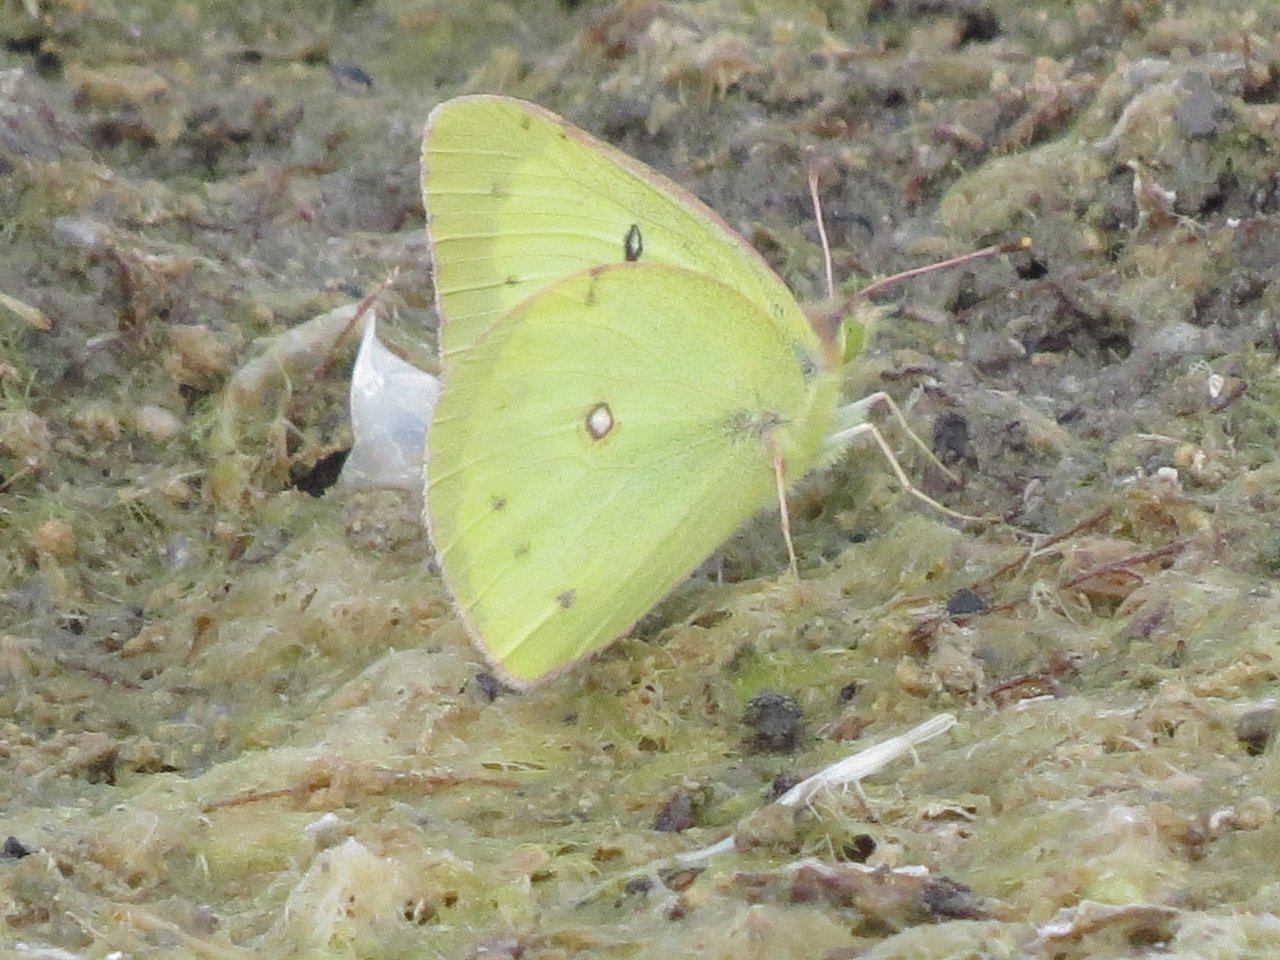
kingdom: Animalia
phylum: Arthropoda
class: Insecta
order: Lepidoptera
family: Pieridae
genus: Colias
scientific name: Colias philodice
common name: Clouded Sulphur
